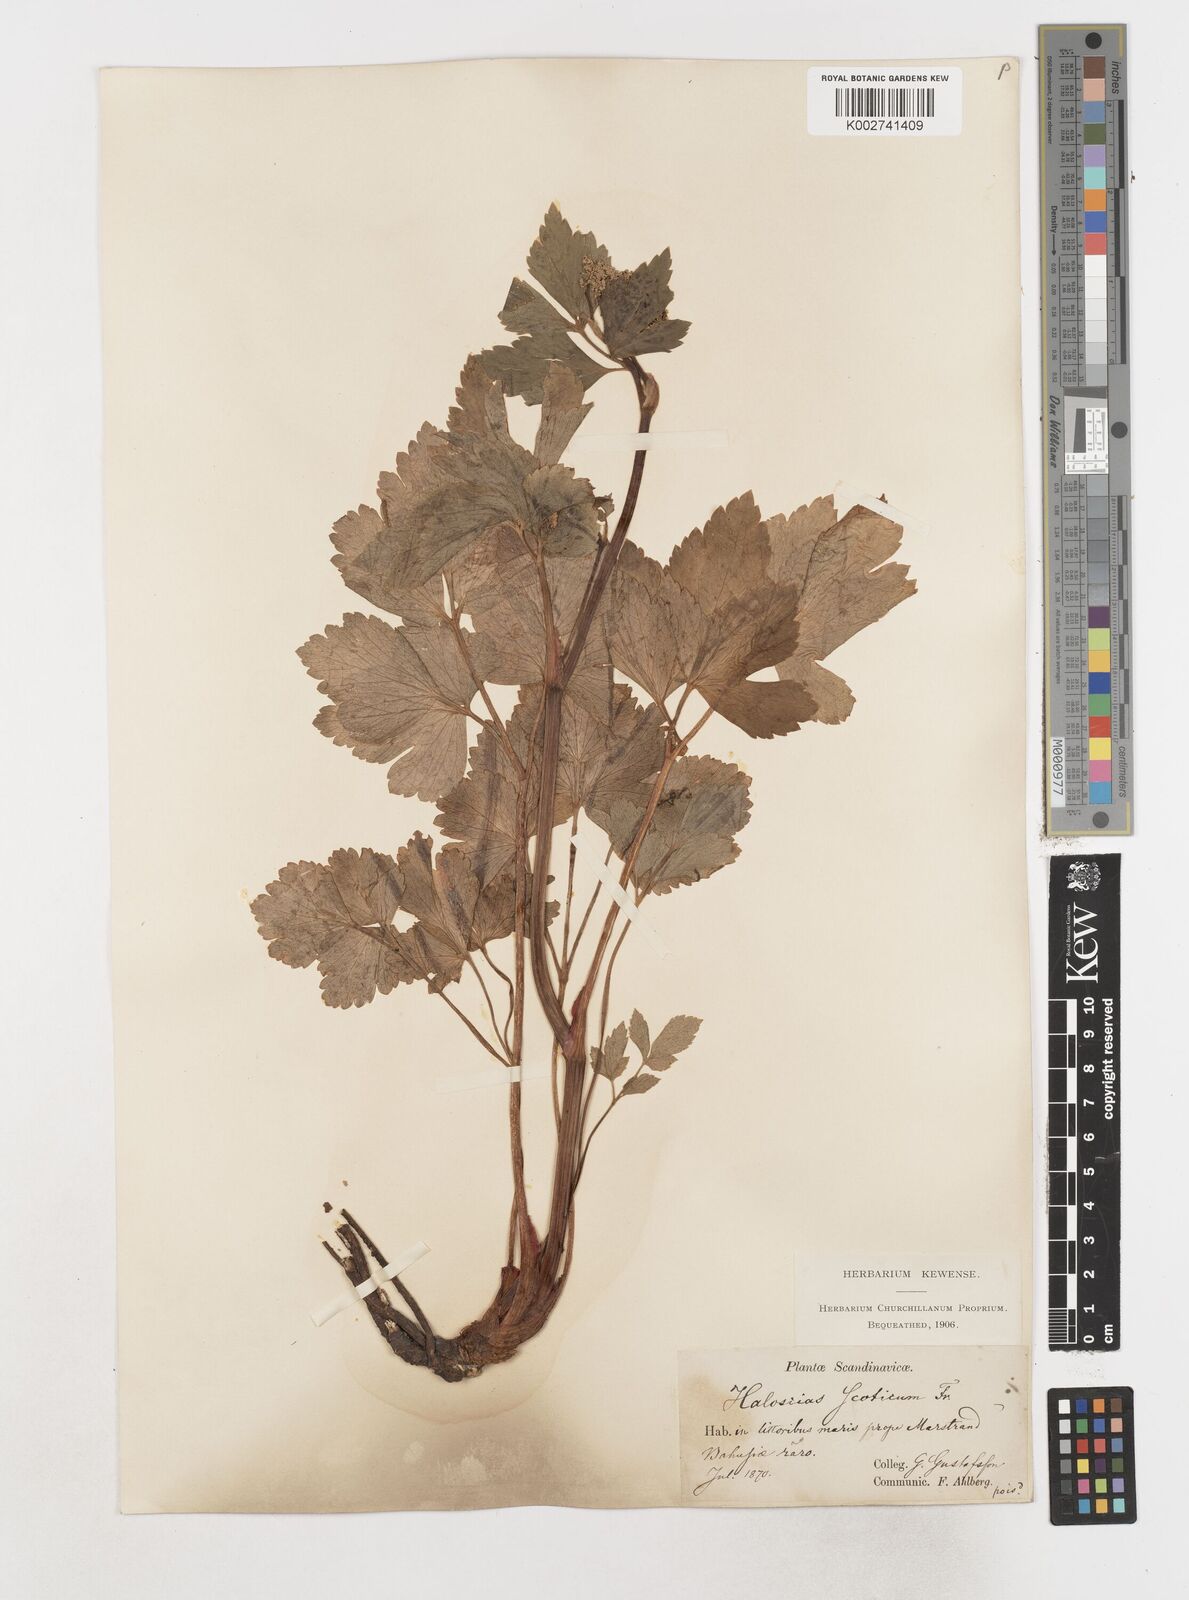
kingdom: Plantae
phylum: Tracheophyta
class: Magnoliopsida
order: Apiales
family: Apiaceae
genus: Ligusticum
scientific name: Ligusticum scothicum
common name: Beach lovage
